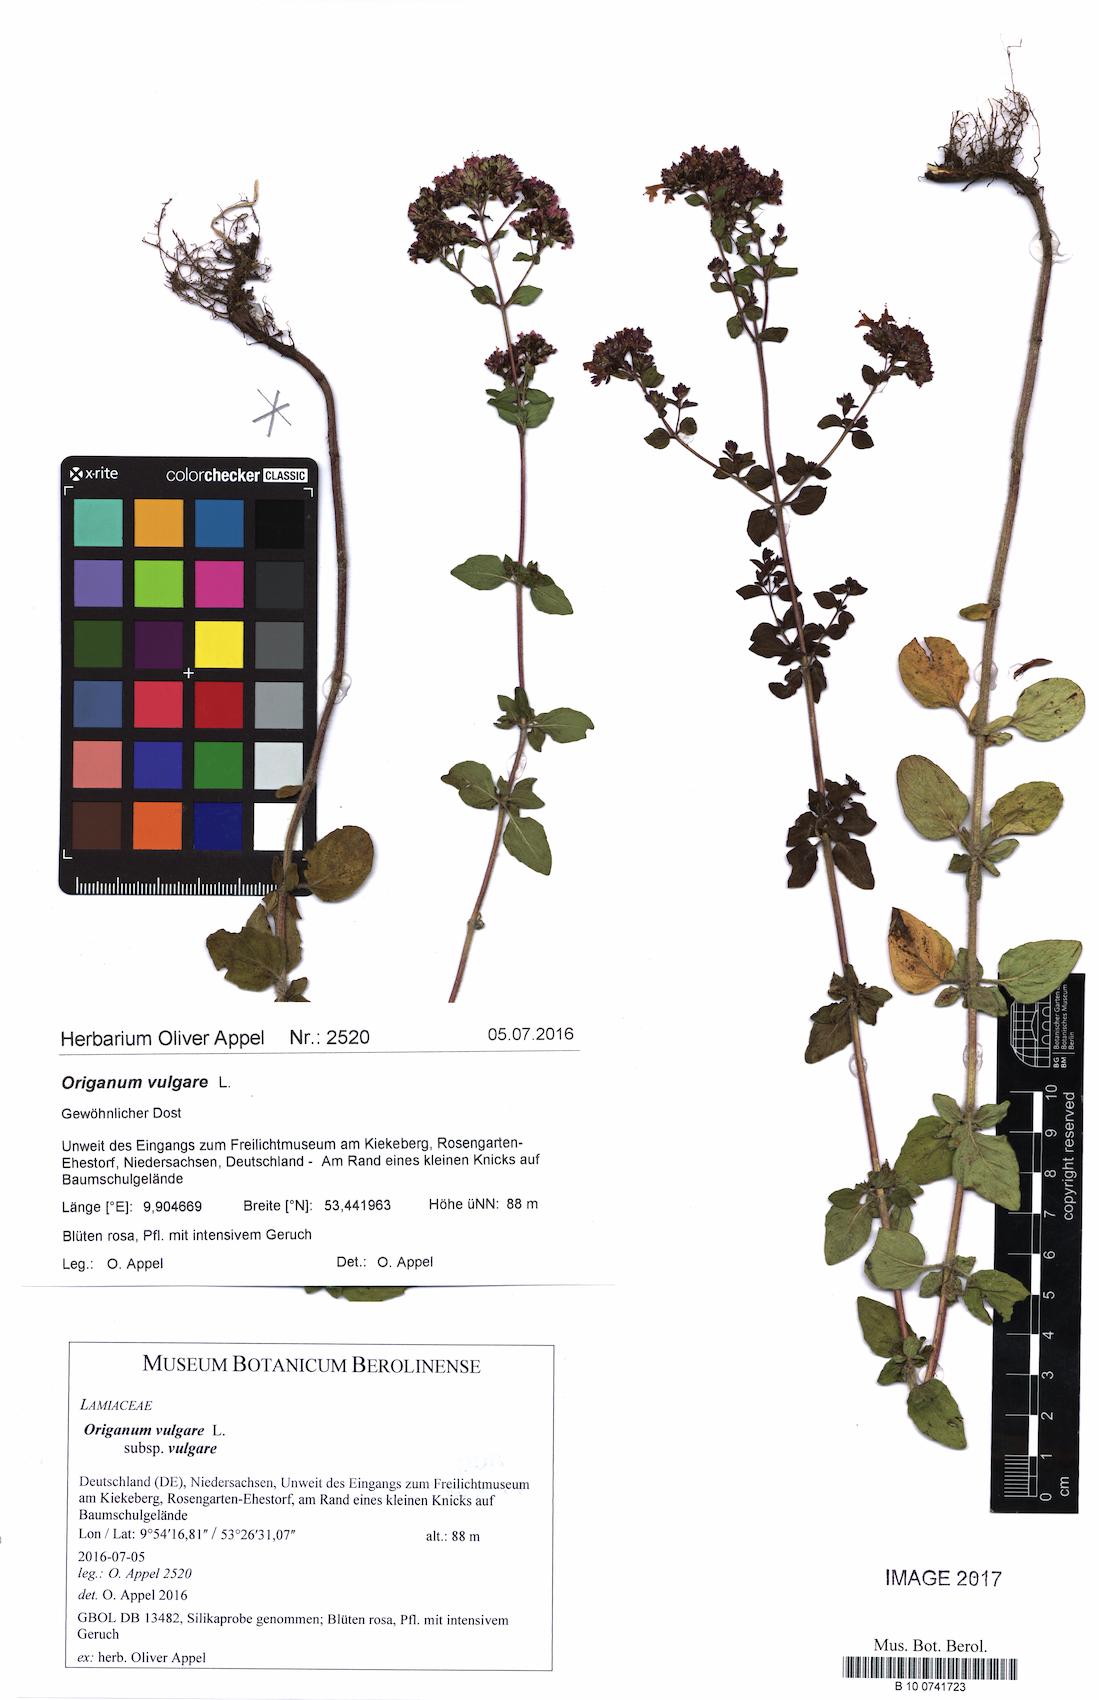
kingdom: Plantae
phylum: Tracheophyta
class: Magnoliopsida
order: Lamiales
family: Lamiaceae
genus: Origanum
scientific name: Origanum vulgare
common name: Wild marjoram
